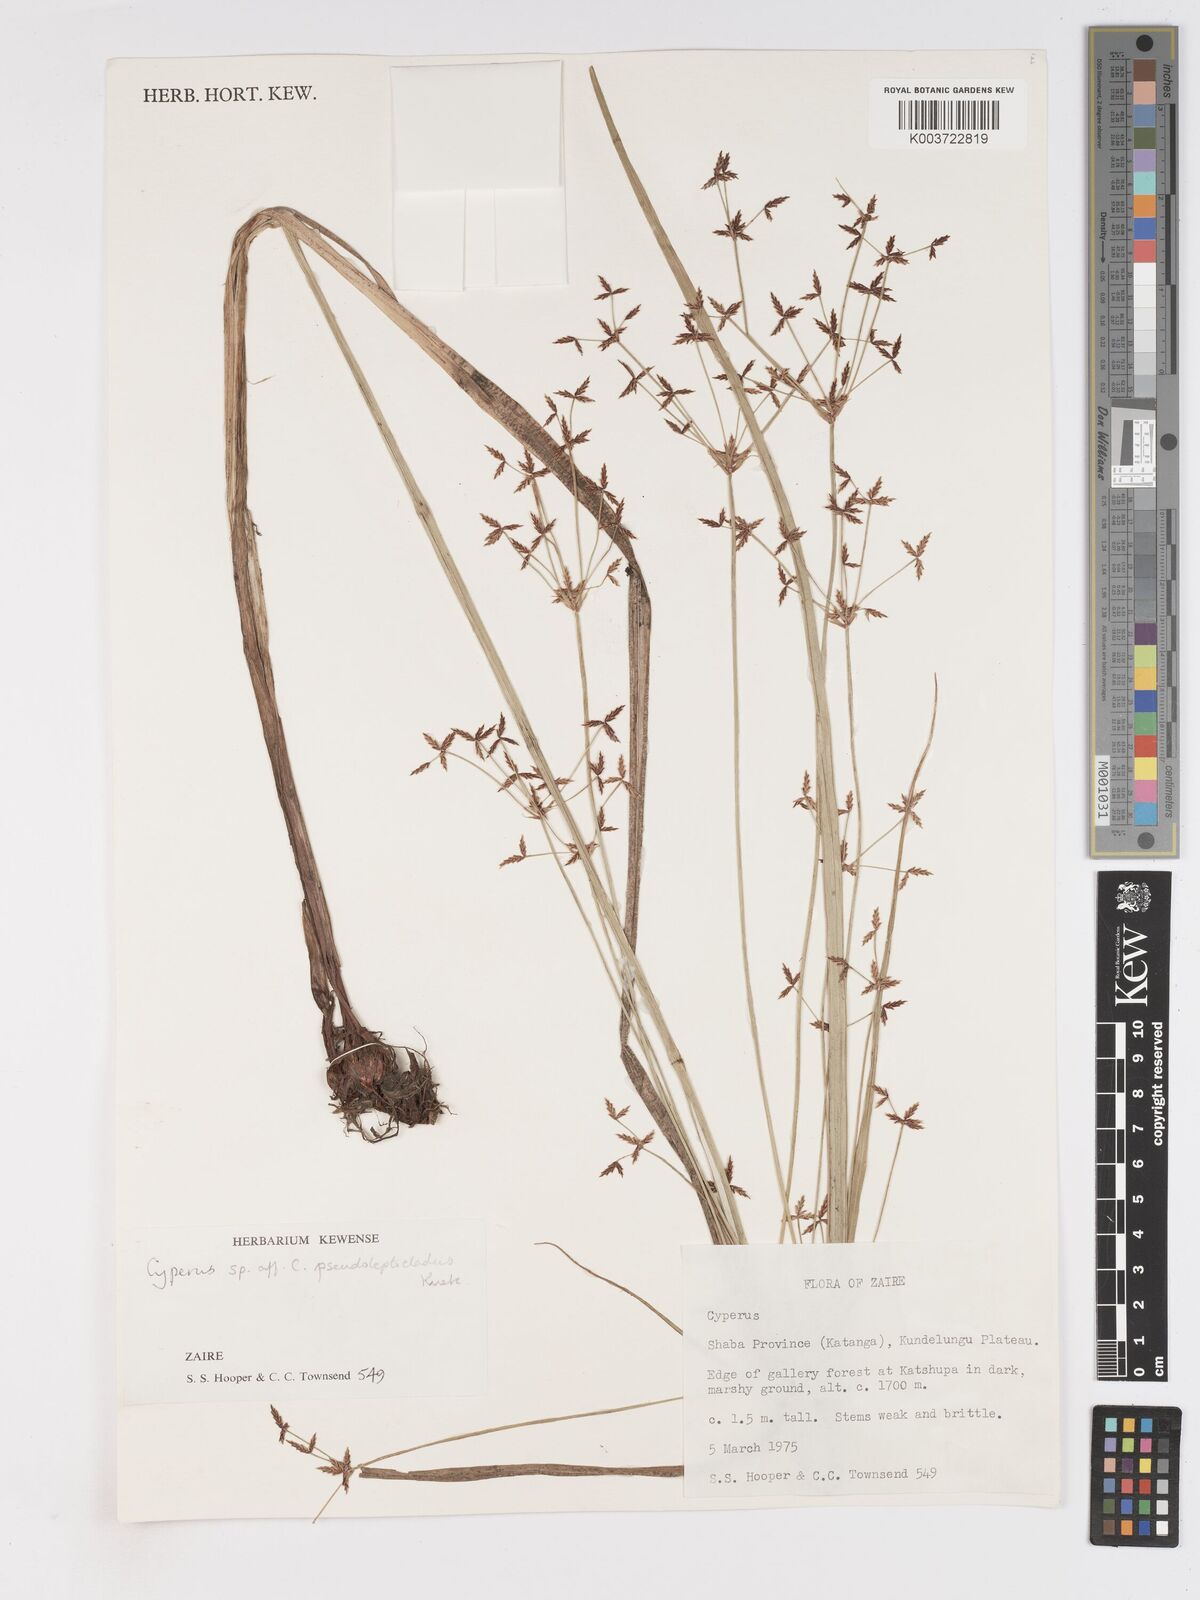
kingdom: Plantae
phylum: Tracheophyta
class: Liliopsida
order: Poales
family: Cyperaceae
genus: Cyperus
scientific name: Cyperus glaucophyllus
